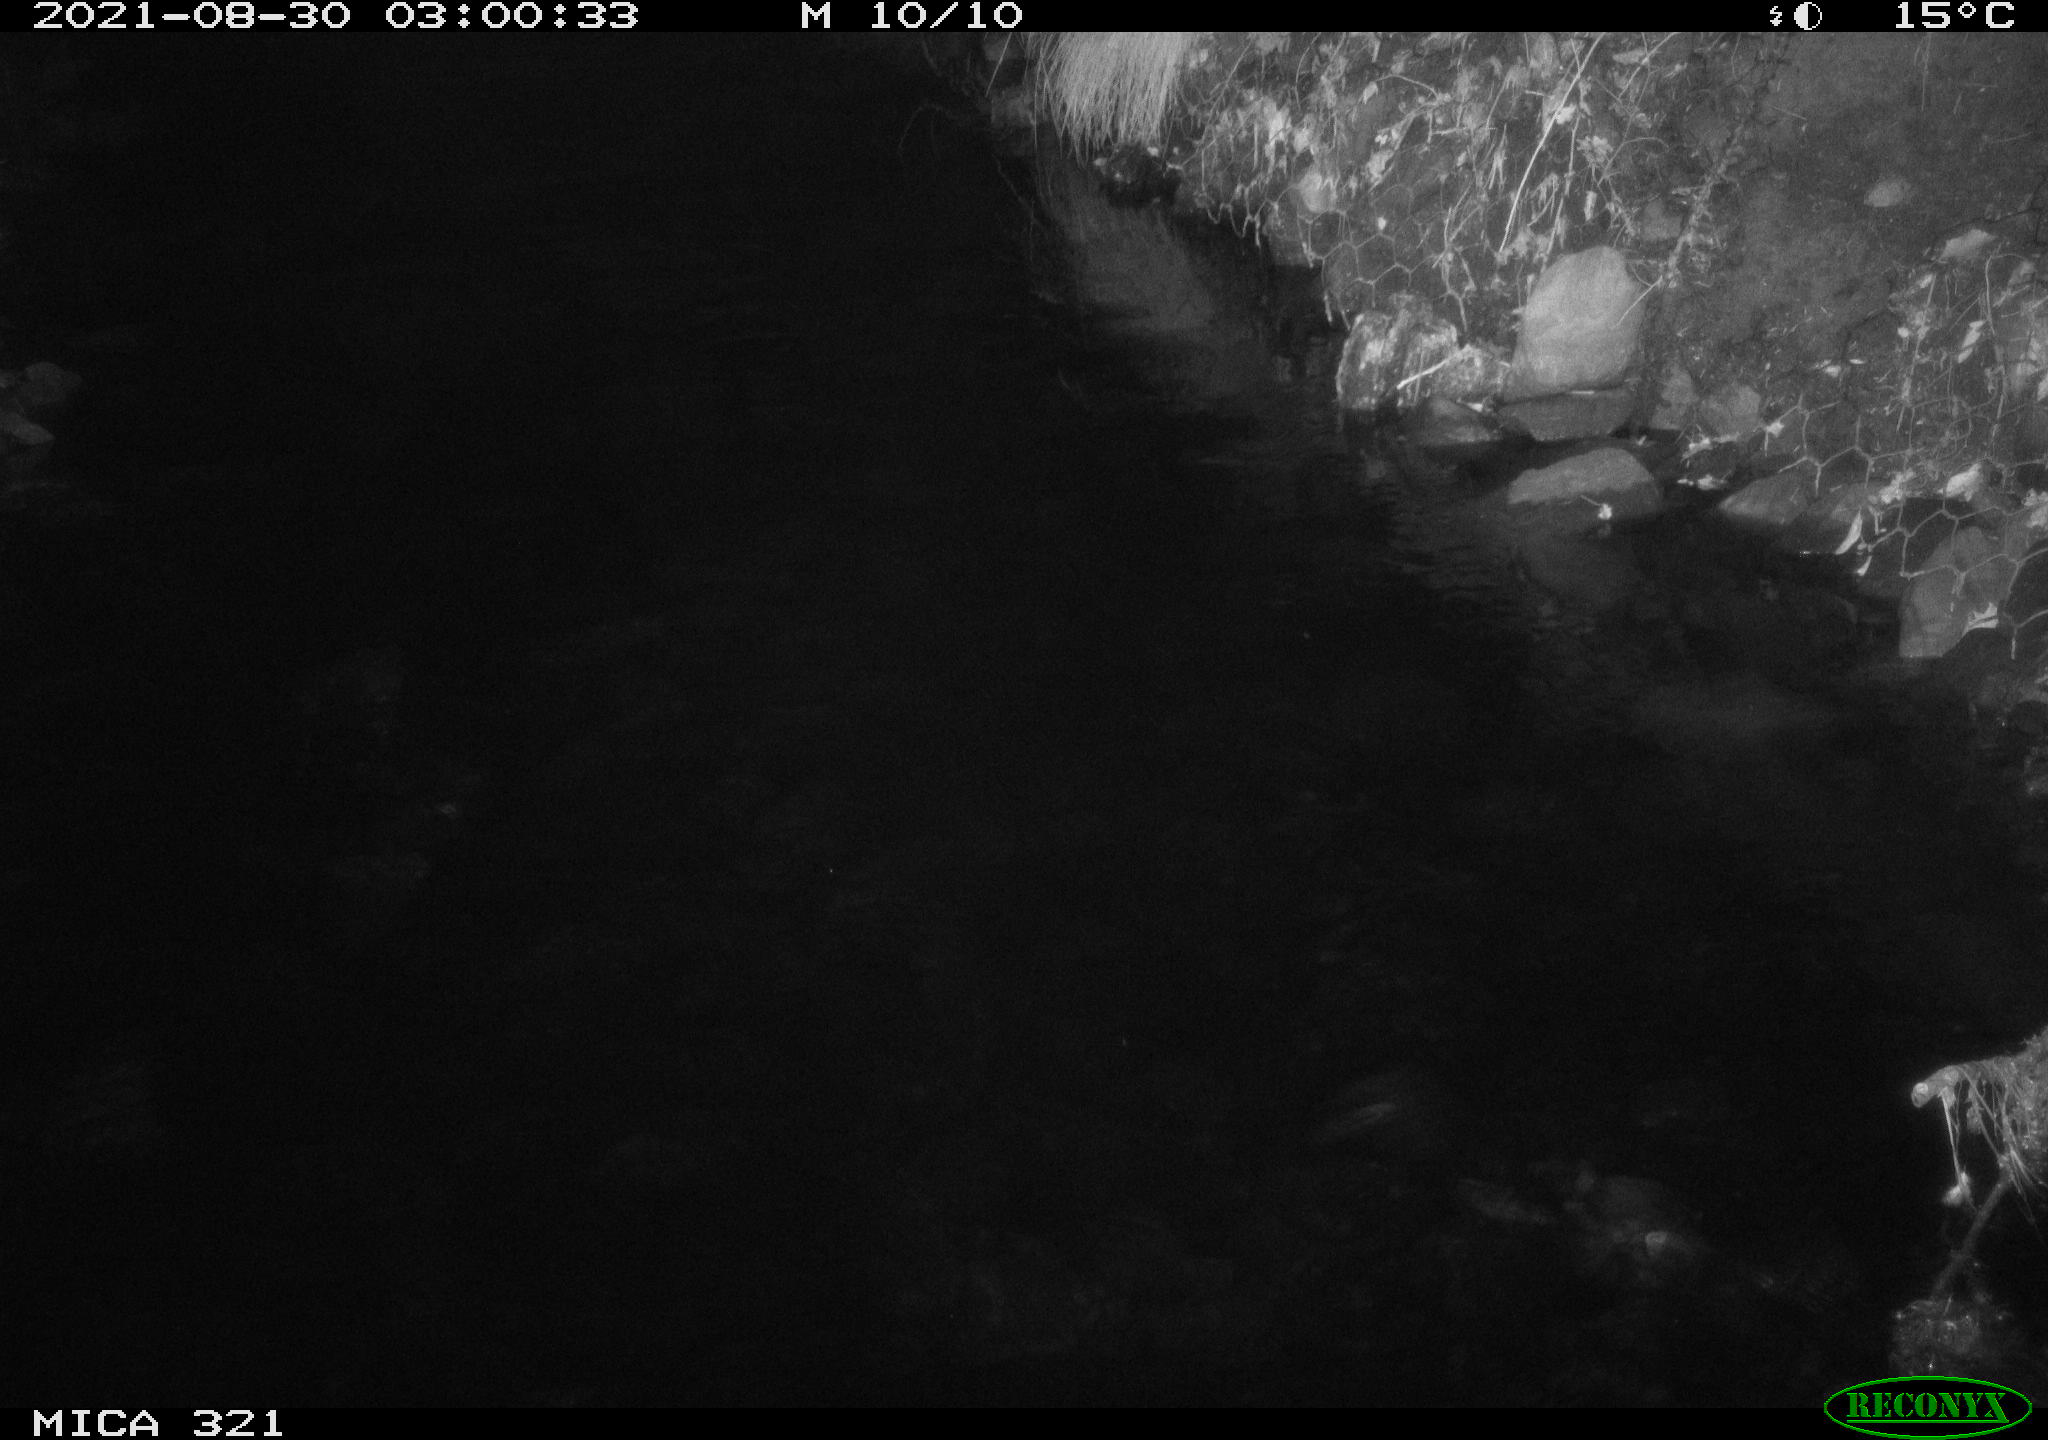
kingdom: Animalia
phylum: Chordata
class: Aves
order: Anseriformes
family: Anatidae
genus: Anas
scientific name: Anas platyrhynchos
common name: Mallard
